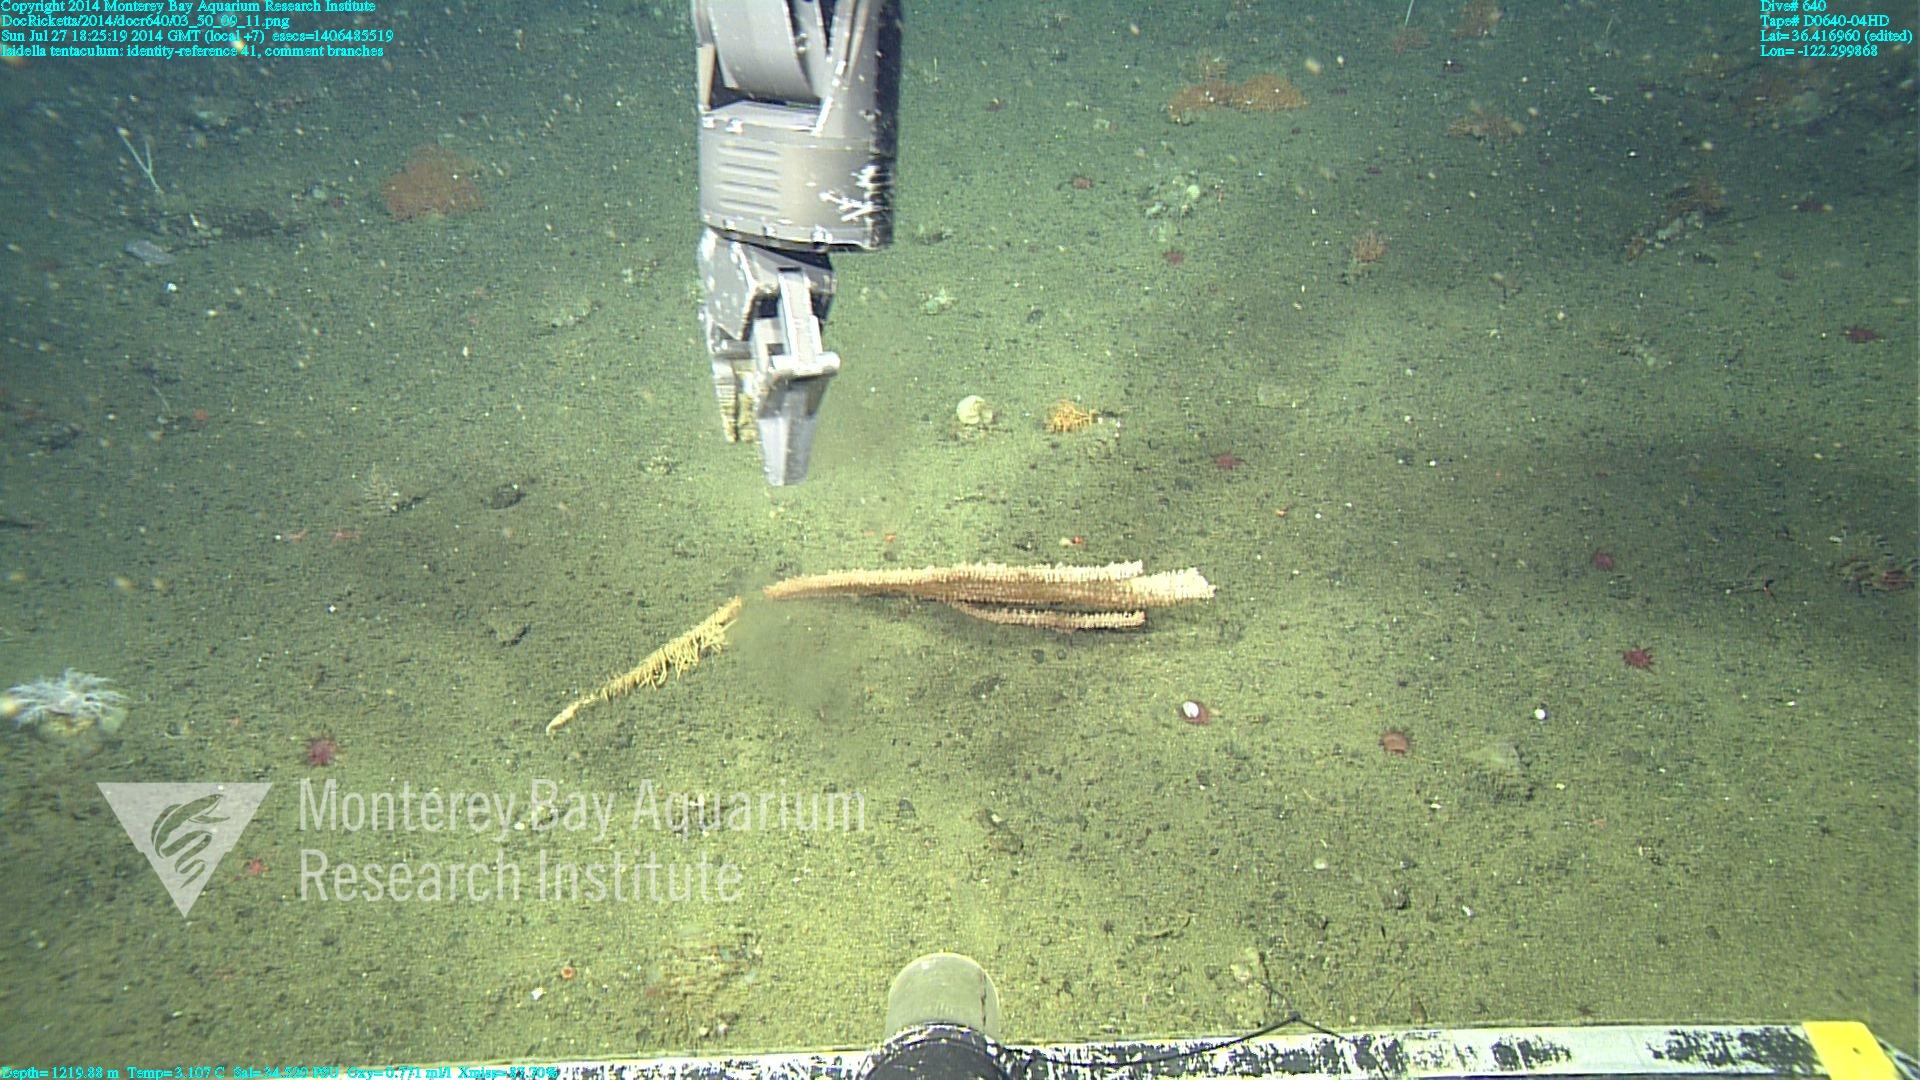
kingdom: Animalia
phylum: Cnidaria
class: Anthozoa
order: Scleralcyonacea
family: Keratoisididae
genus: Isidella
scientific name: Isidella tentaculum
